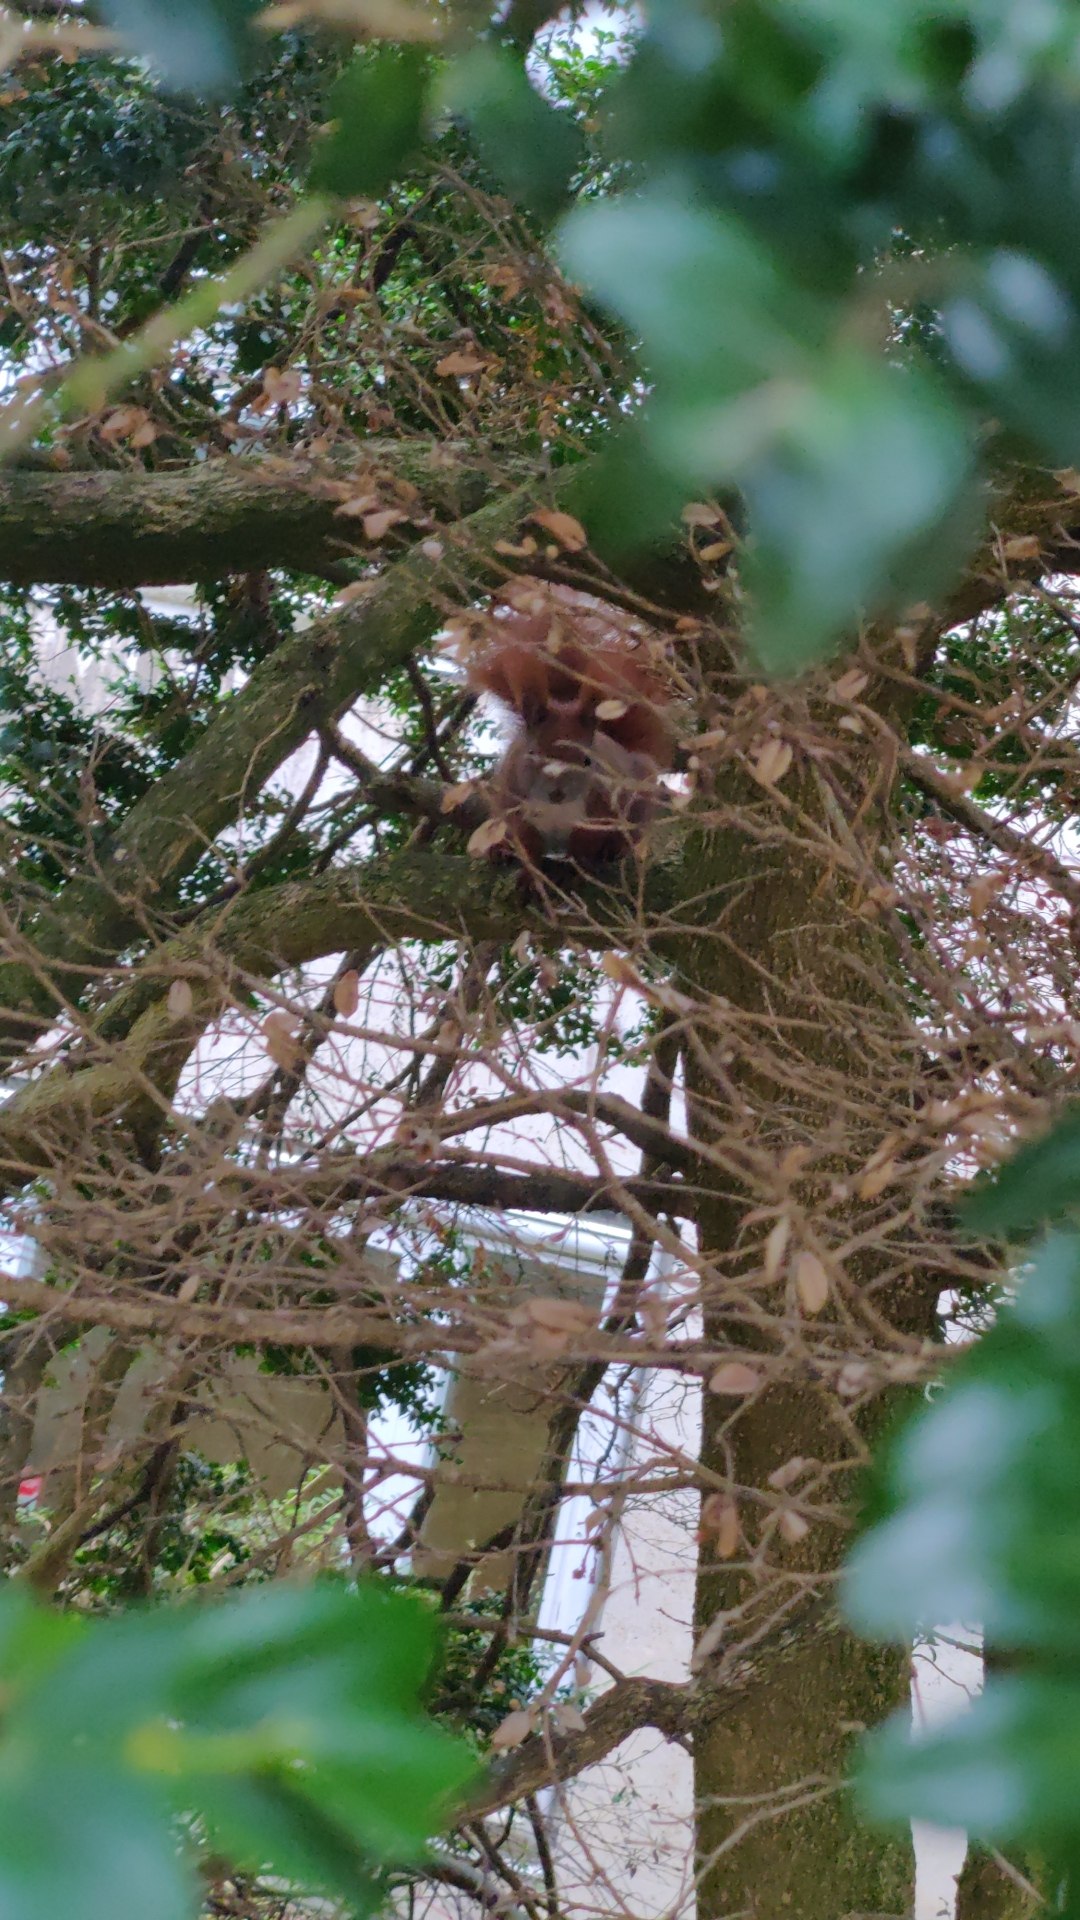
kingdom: Animalia
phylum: Chordata
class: Mammalia
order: Rodentia
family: Sciuridae
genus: Sciurus
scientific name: Sciurus vulgaris
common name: Egern
